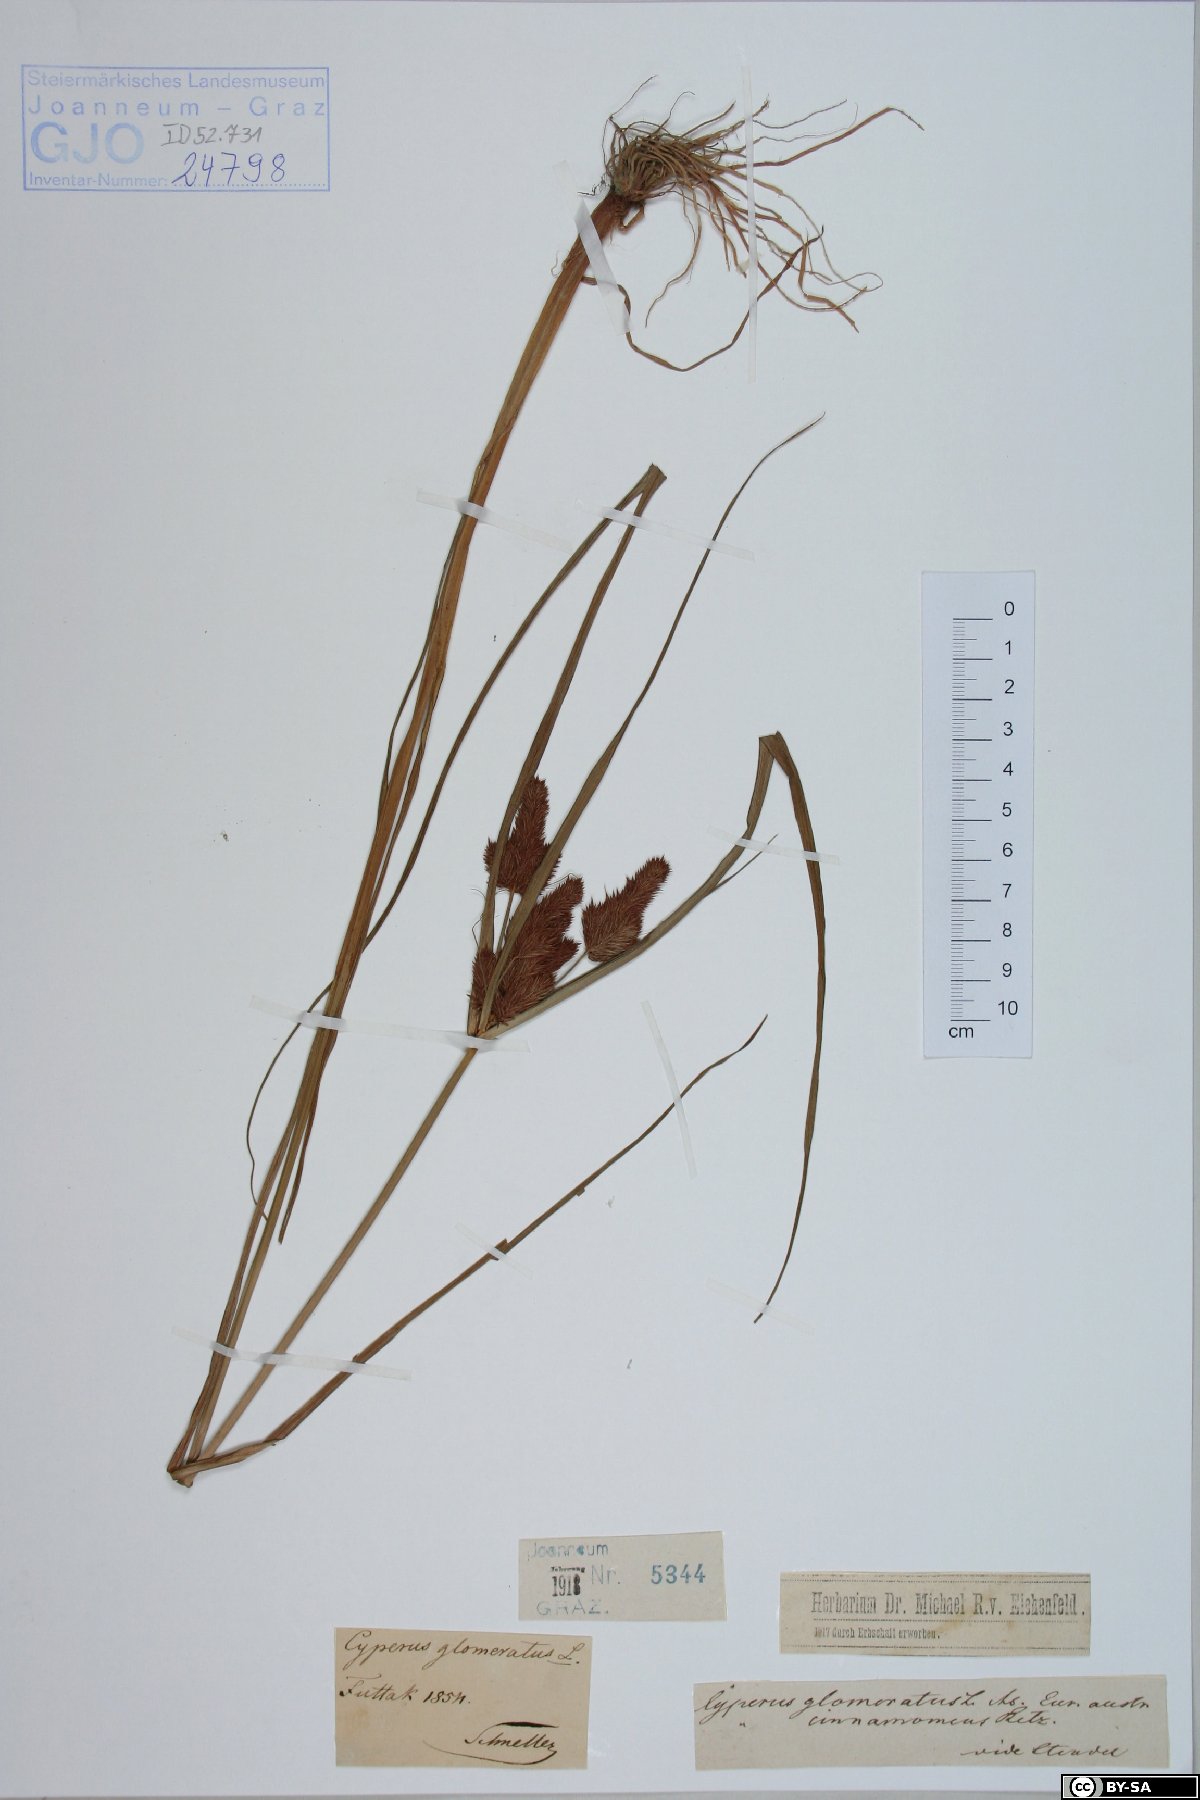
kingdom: Plantae
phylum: Tracheophyta
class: Liliopsida
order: Poales
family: Cyperaceae
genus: Cyperus
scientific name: Cyperus glomeratus
